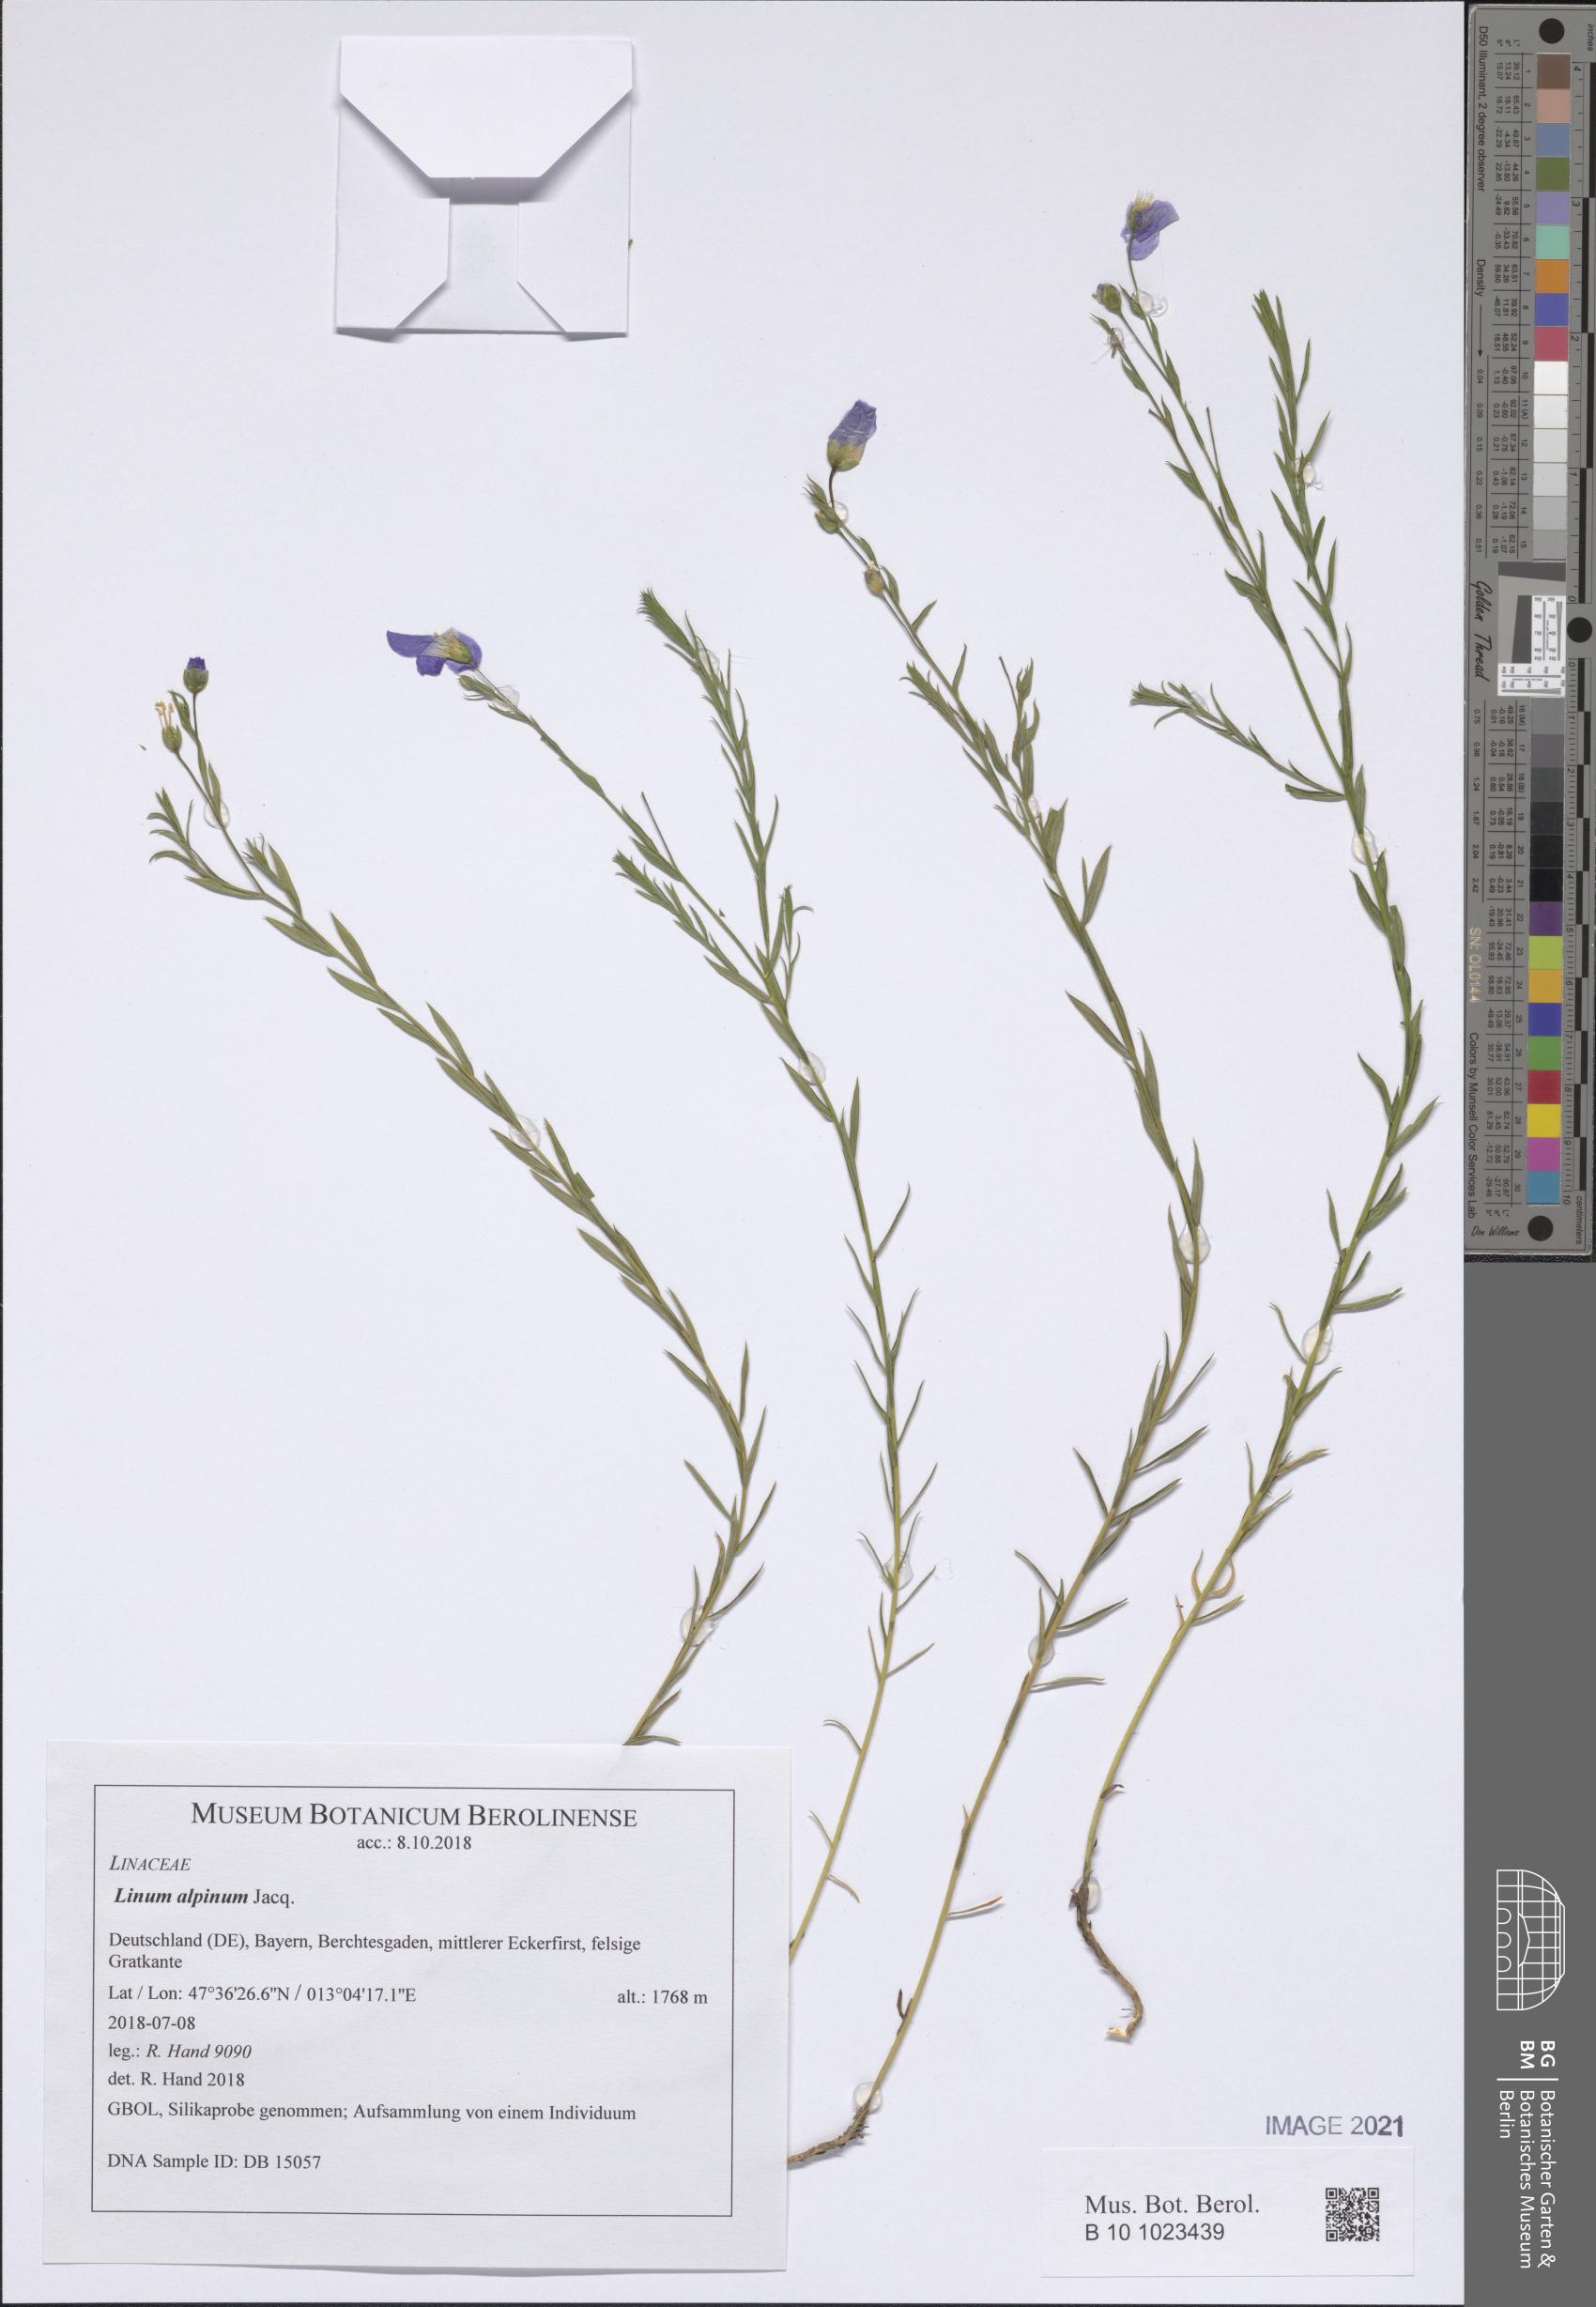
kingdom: Plantae
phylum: Tracheophyta
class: Magnoliopsida
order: Malpighiales
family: Linaceae
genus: Linum
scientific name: Linum alpinum
